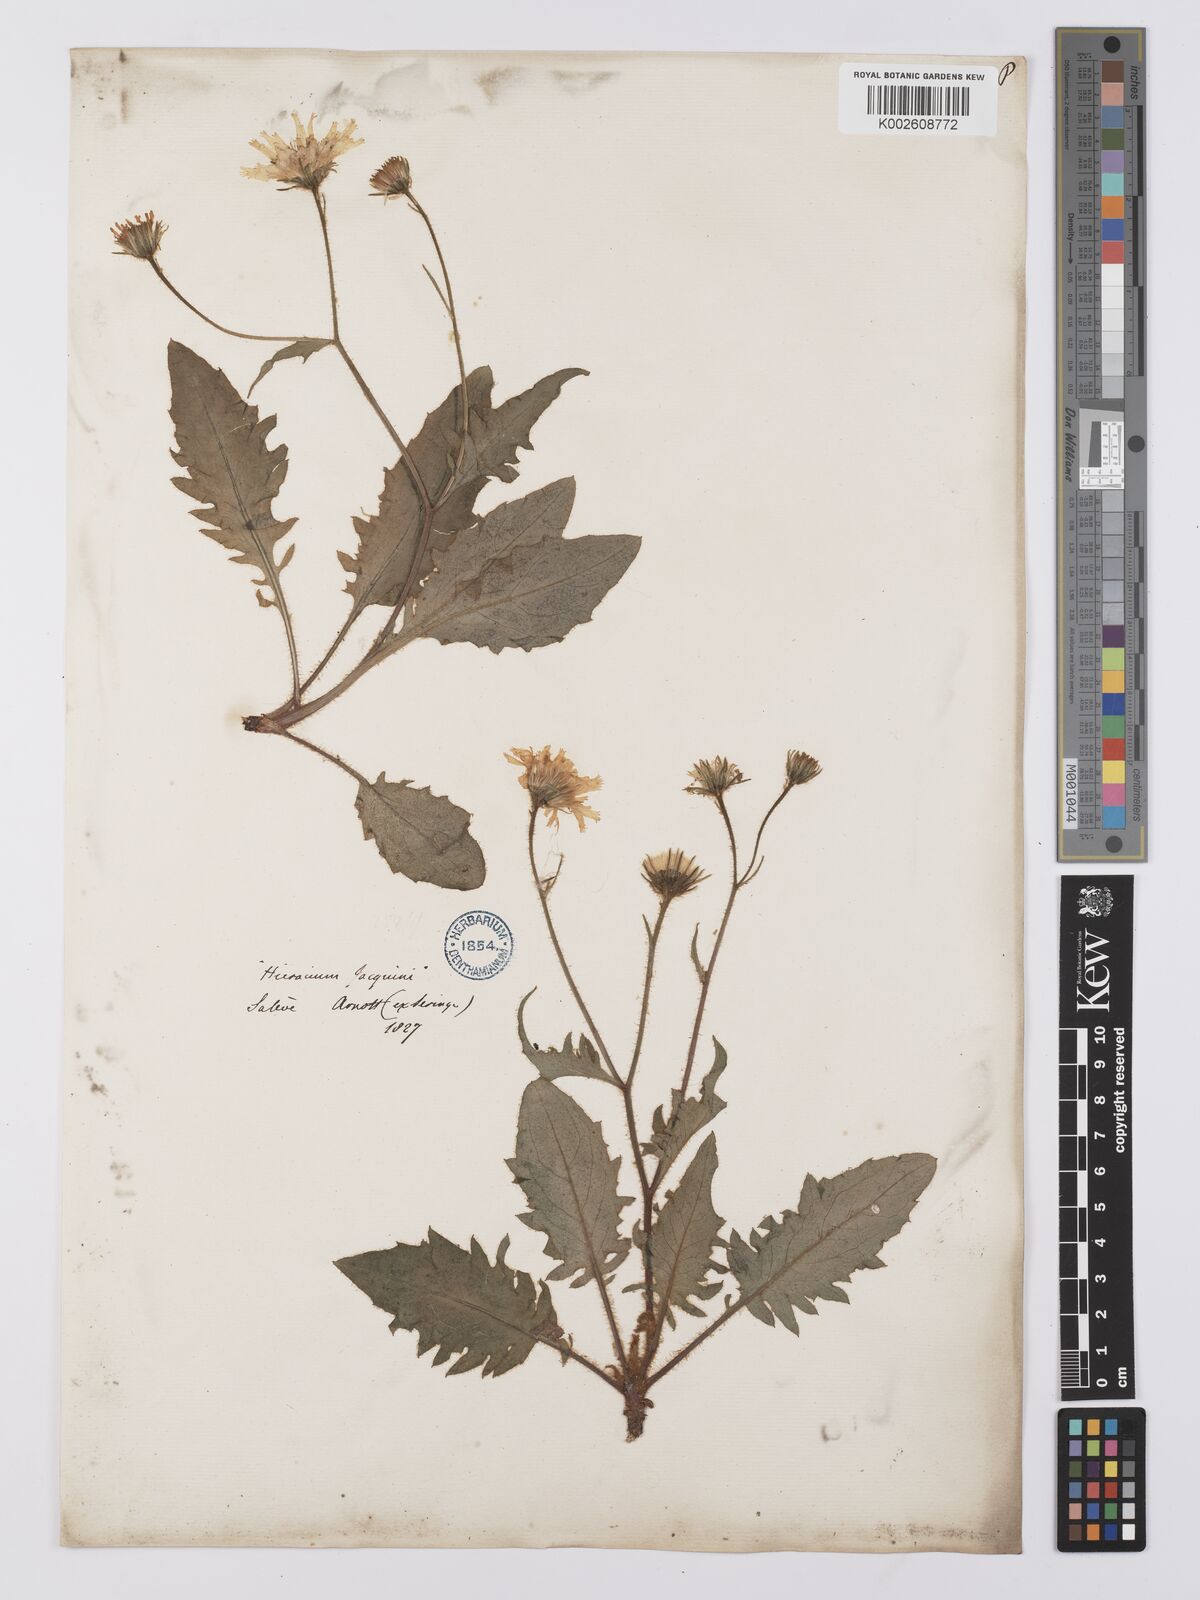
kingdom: Plantae
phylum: Tracheophyta
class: Magnoliopsida
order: Asterales
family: Asteraceae
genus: Hieracium
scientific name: Hieracium humile
